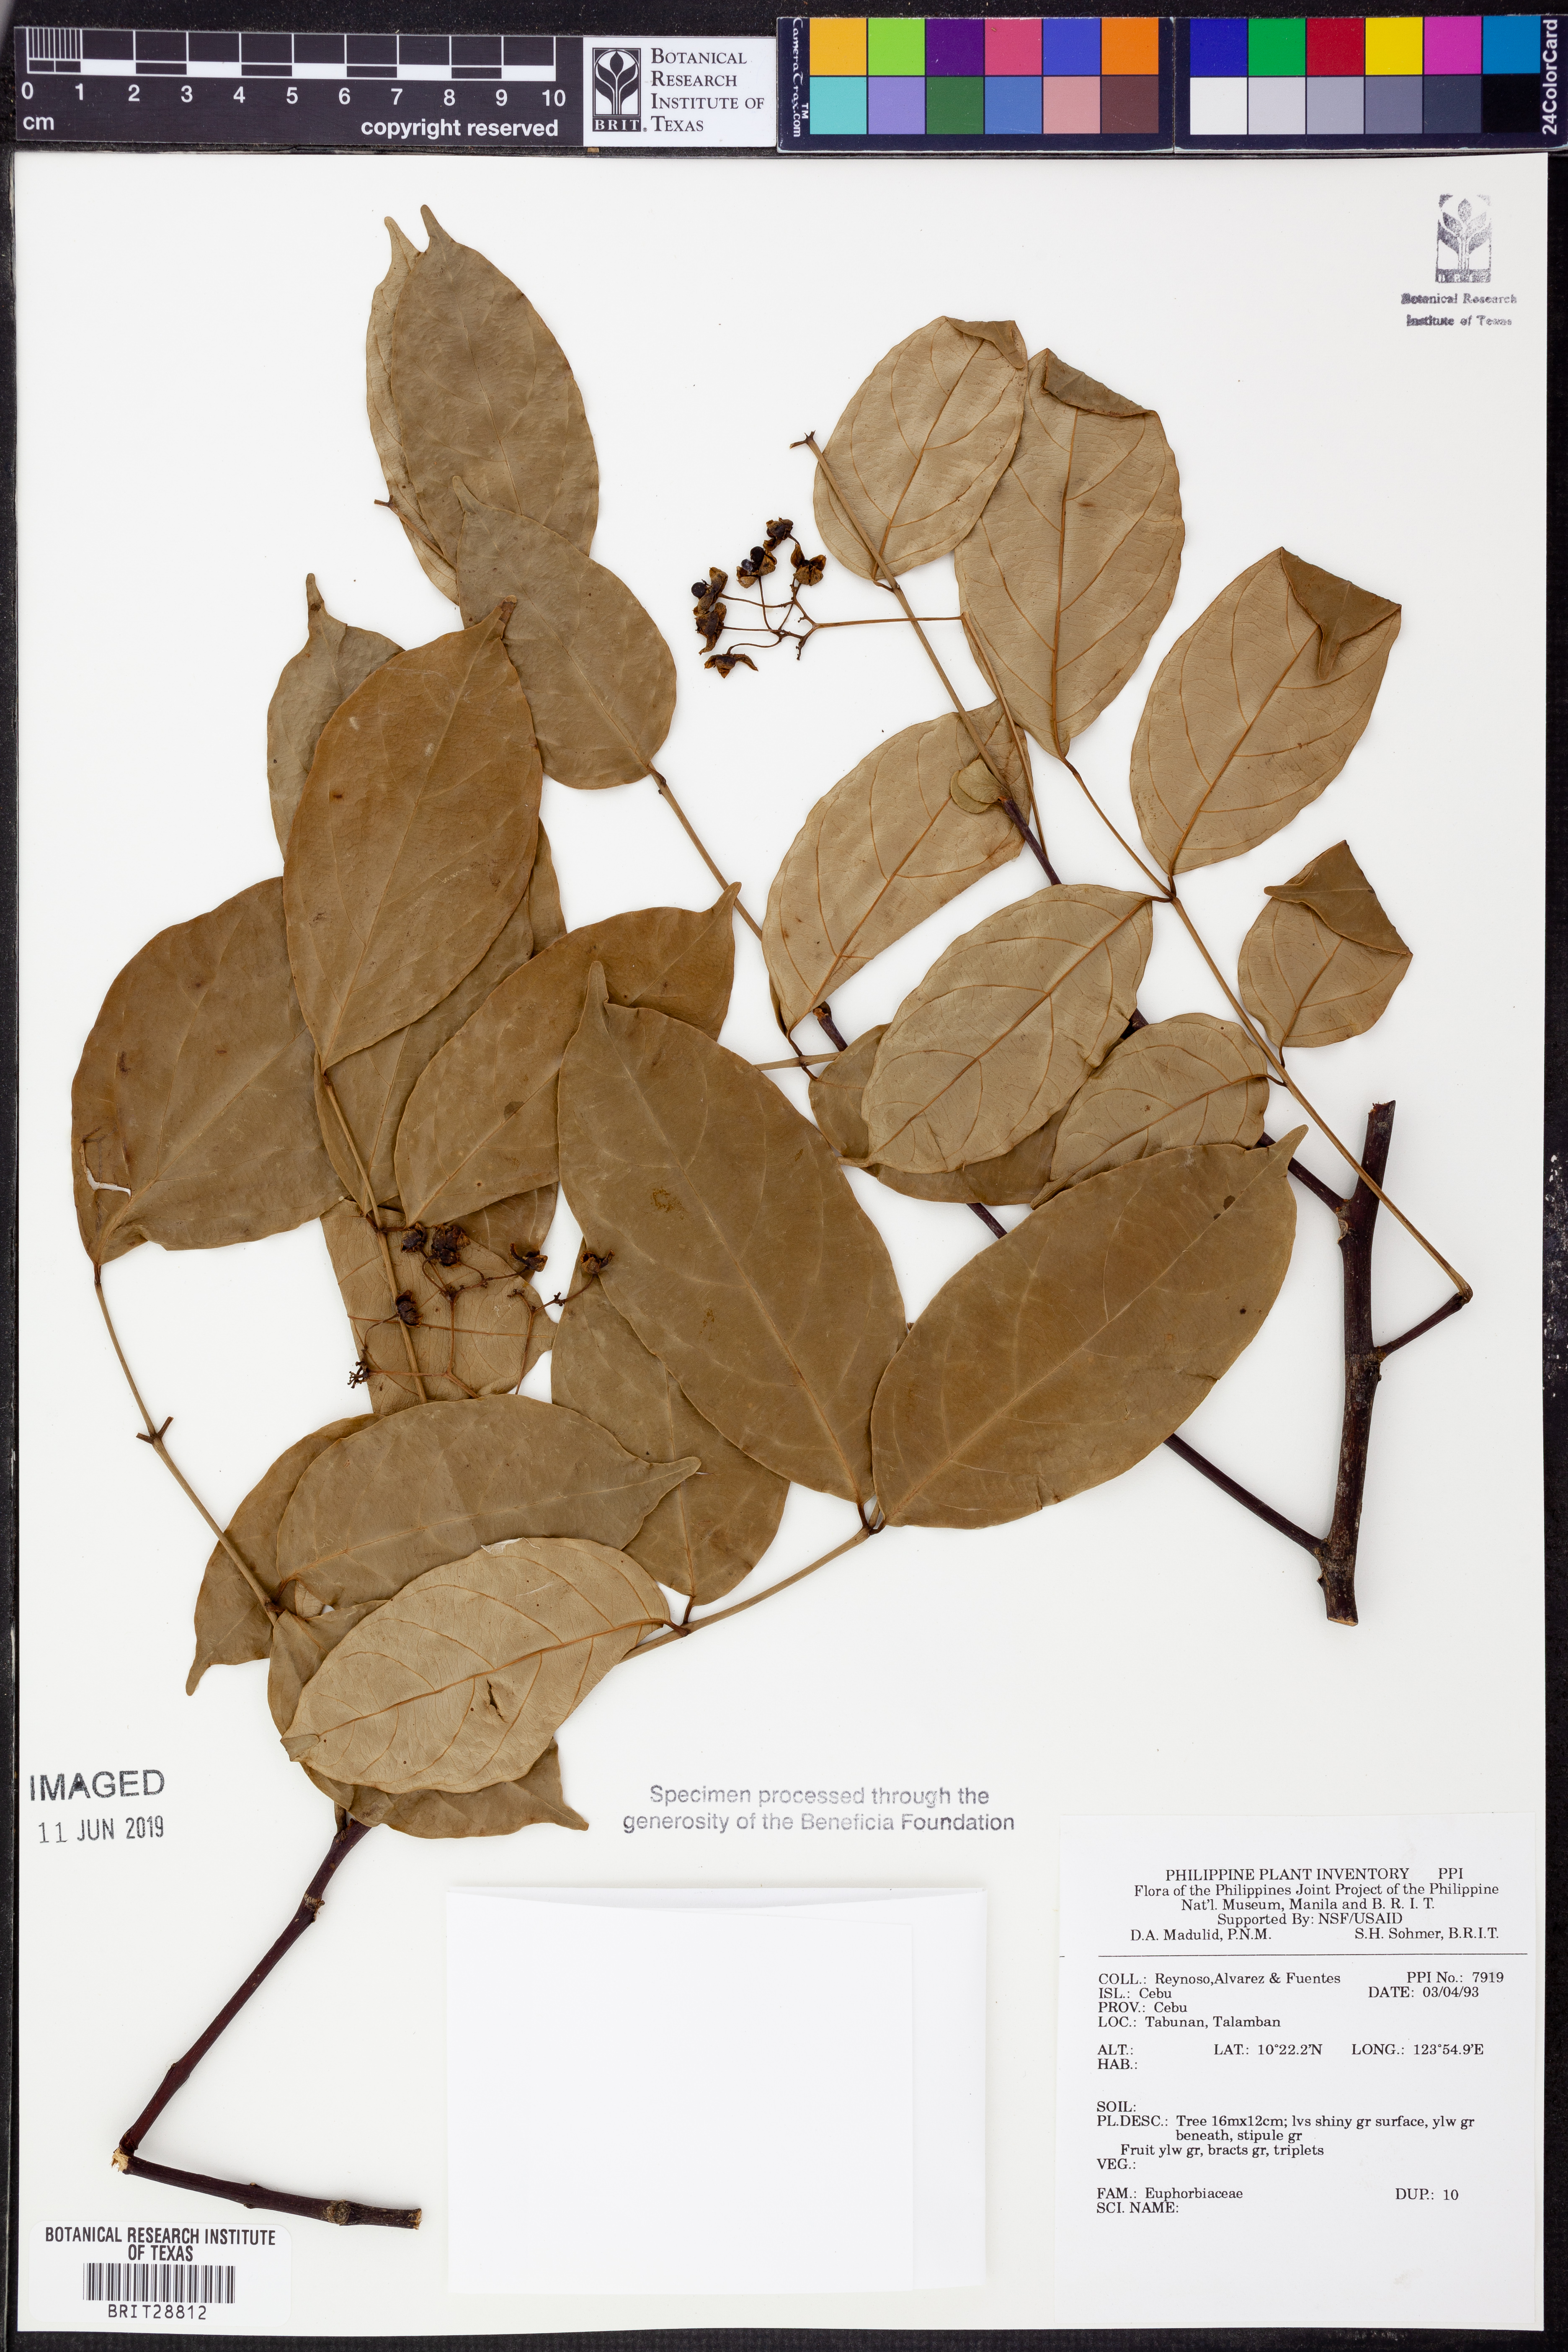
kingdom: Plantae
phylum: Tracheophyta
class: Magnoliopsida
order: Malpighiales
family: Euphorbiaceae
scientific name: Euphorbiaceae
